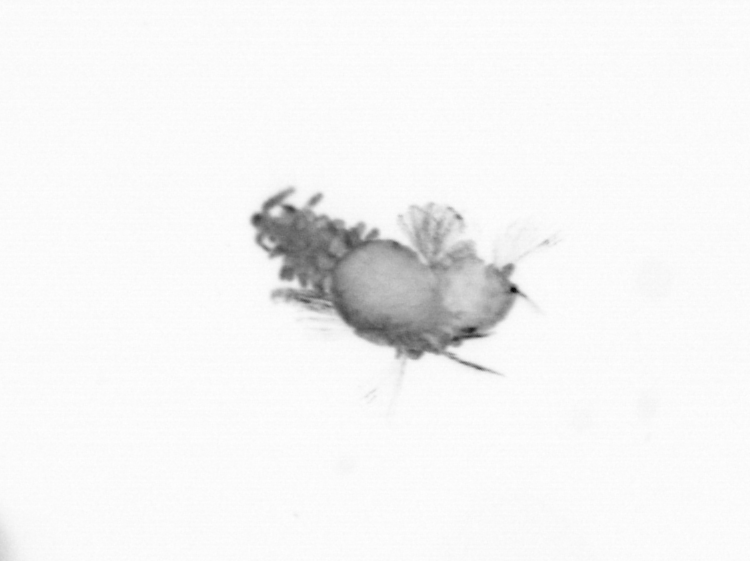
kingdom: Animalia
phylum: Annelida
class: Polychaeta
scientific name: Polychaeta
